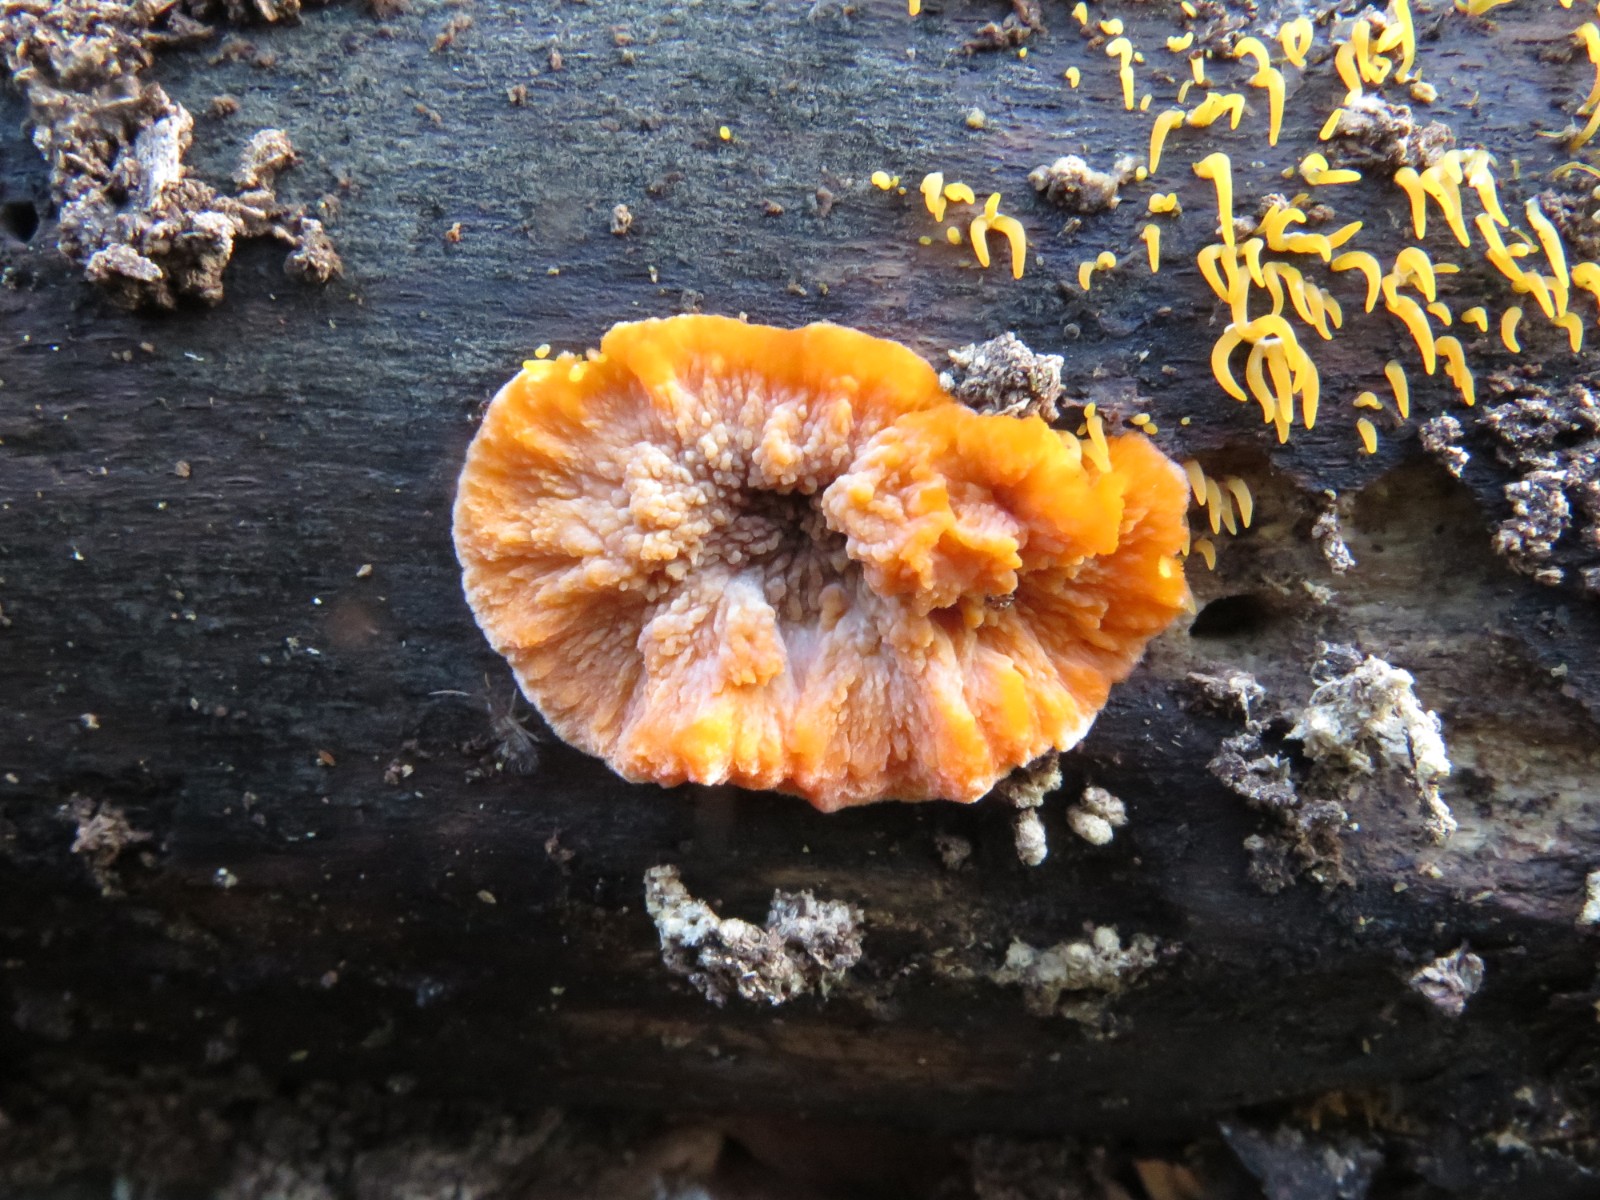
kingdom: Fungi
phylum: Basidiomycota
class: Agaricomycetes
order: Polyporales
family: Meruliaceae
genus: Phlebia
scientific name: Phlebia radiata
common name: stråle-åresvamp
